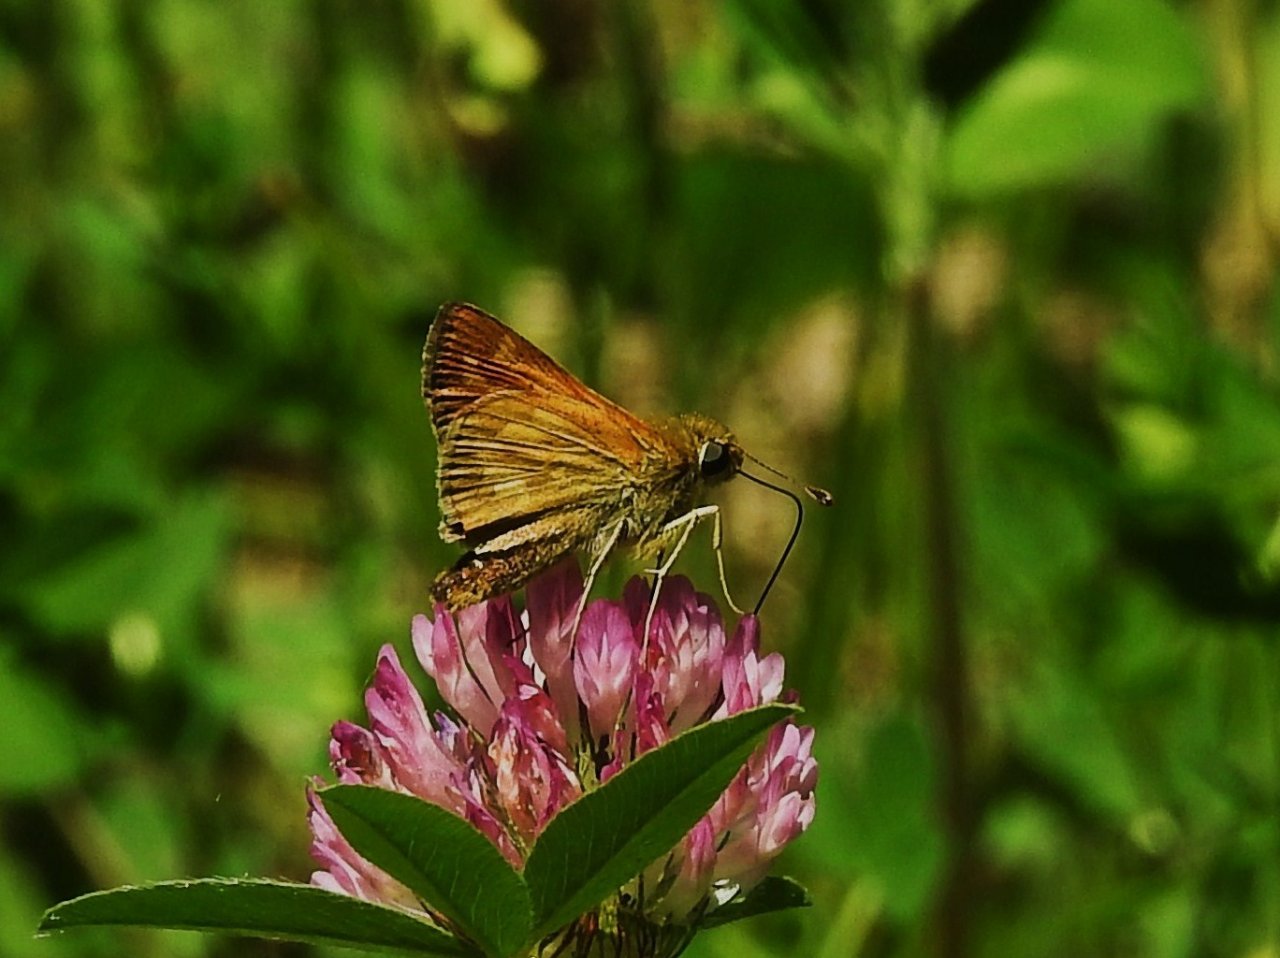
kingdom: Animalia
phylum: Arthropoda
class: Insecta
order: Lepidoptera
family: Hesperiidae
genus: Hesperia
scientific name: Hesperia sassacus
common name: Sassacus Skipper
